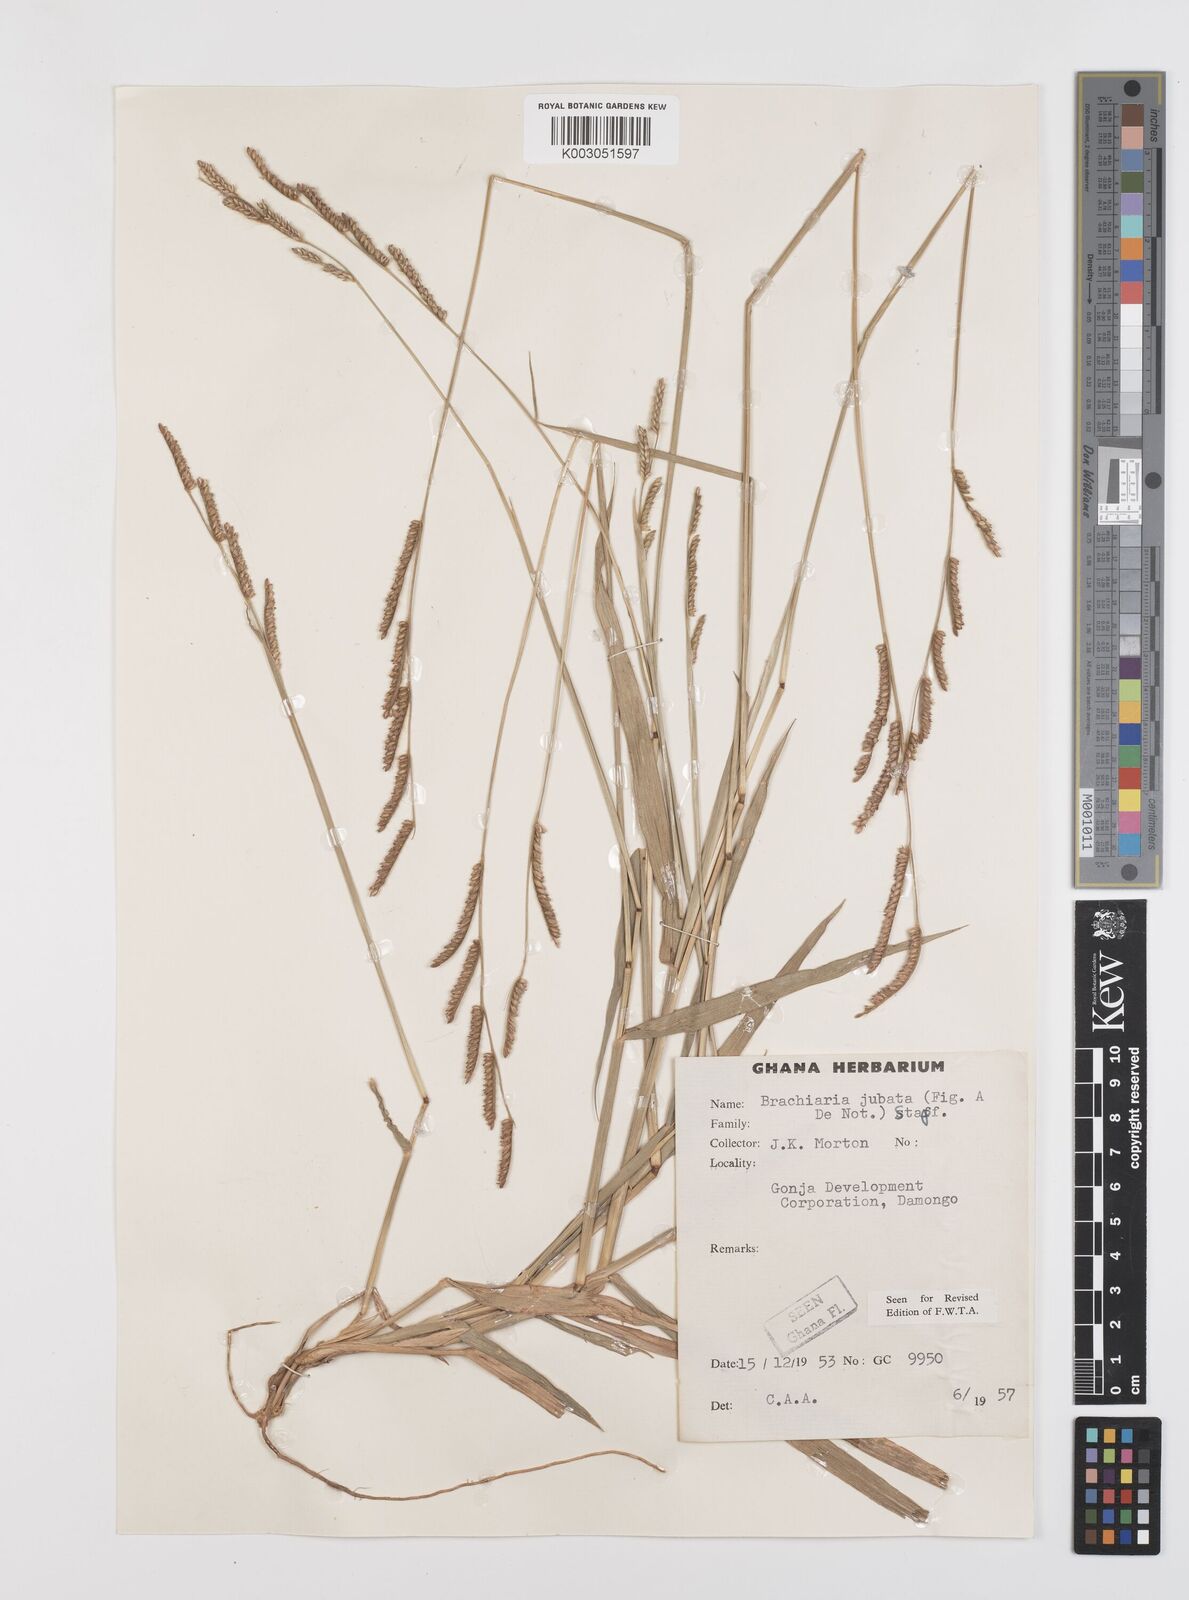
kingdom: Plantae
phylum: Tracheophyta
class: Liliopsida
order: Poales
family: Poaceae
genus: Urochloa
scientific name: Urochloa jubata
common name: Buffalograss
